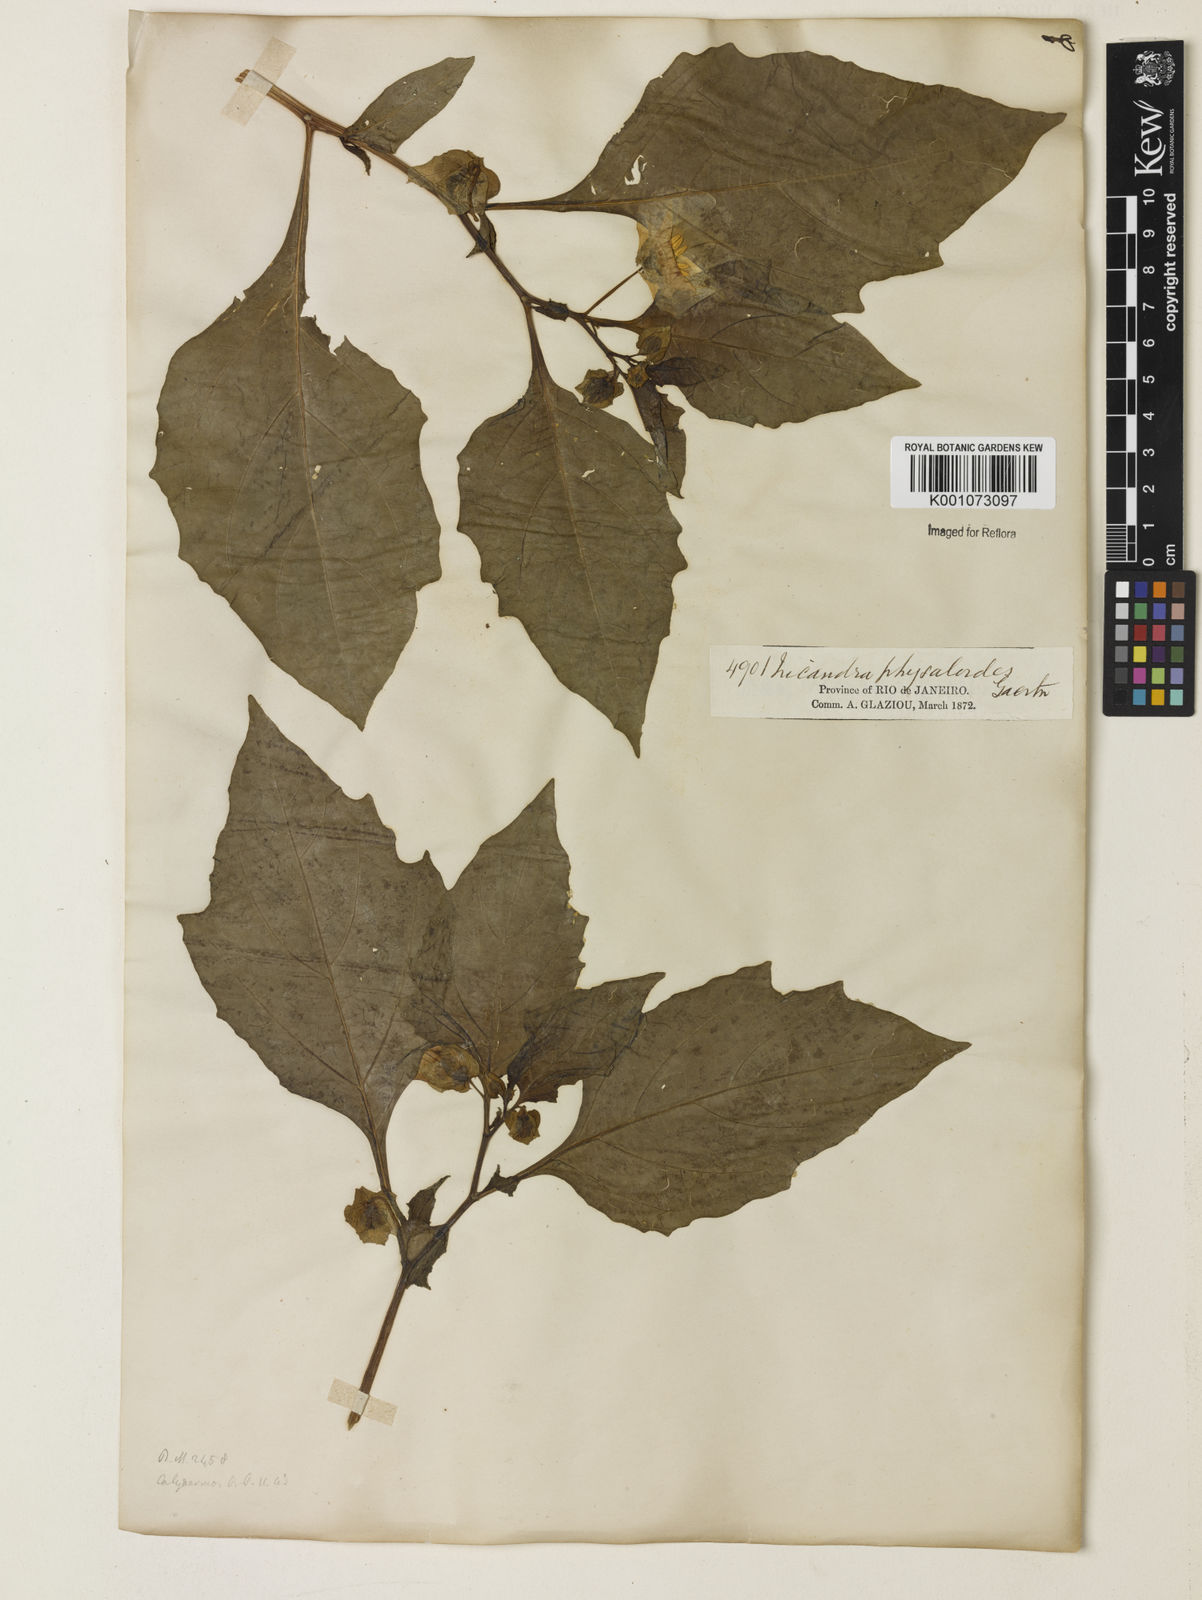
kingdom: Plantae
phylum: Tracheophyta
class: Magnoliopsida
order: Solanales
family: Solanaceae
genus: Nicandra
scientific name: Nicandra
